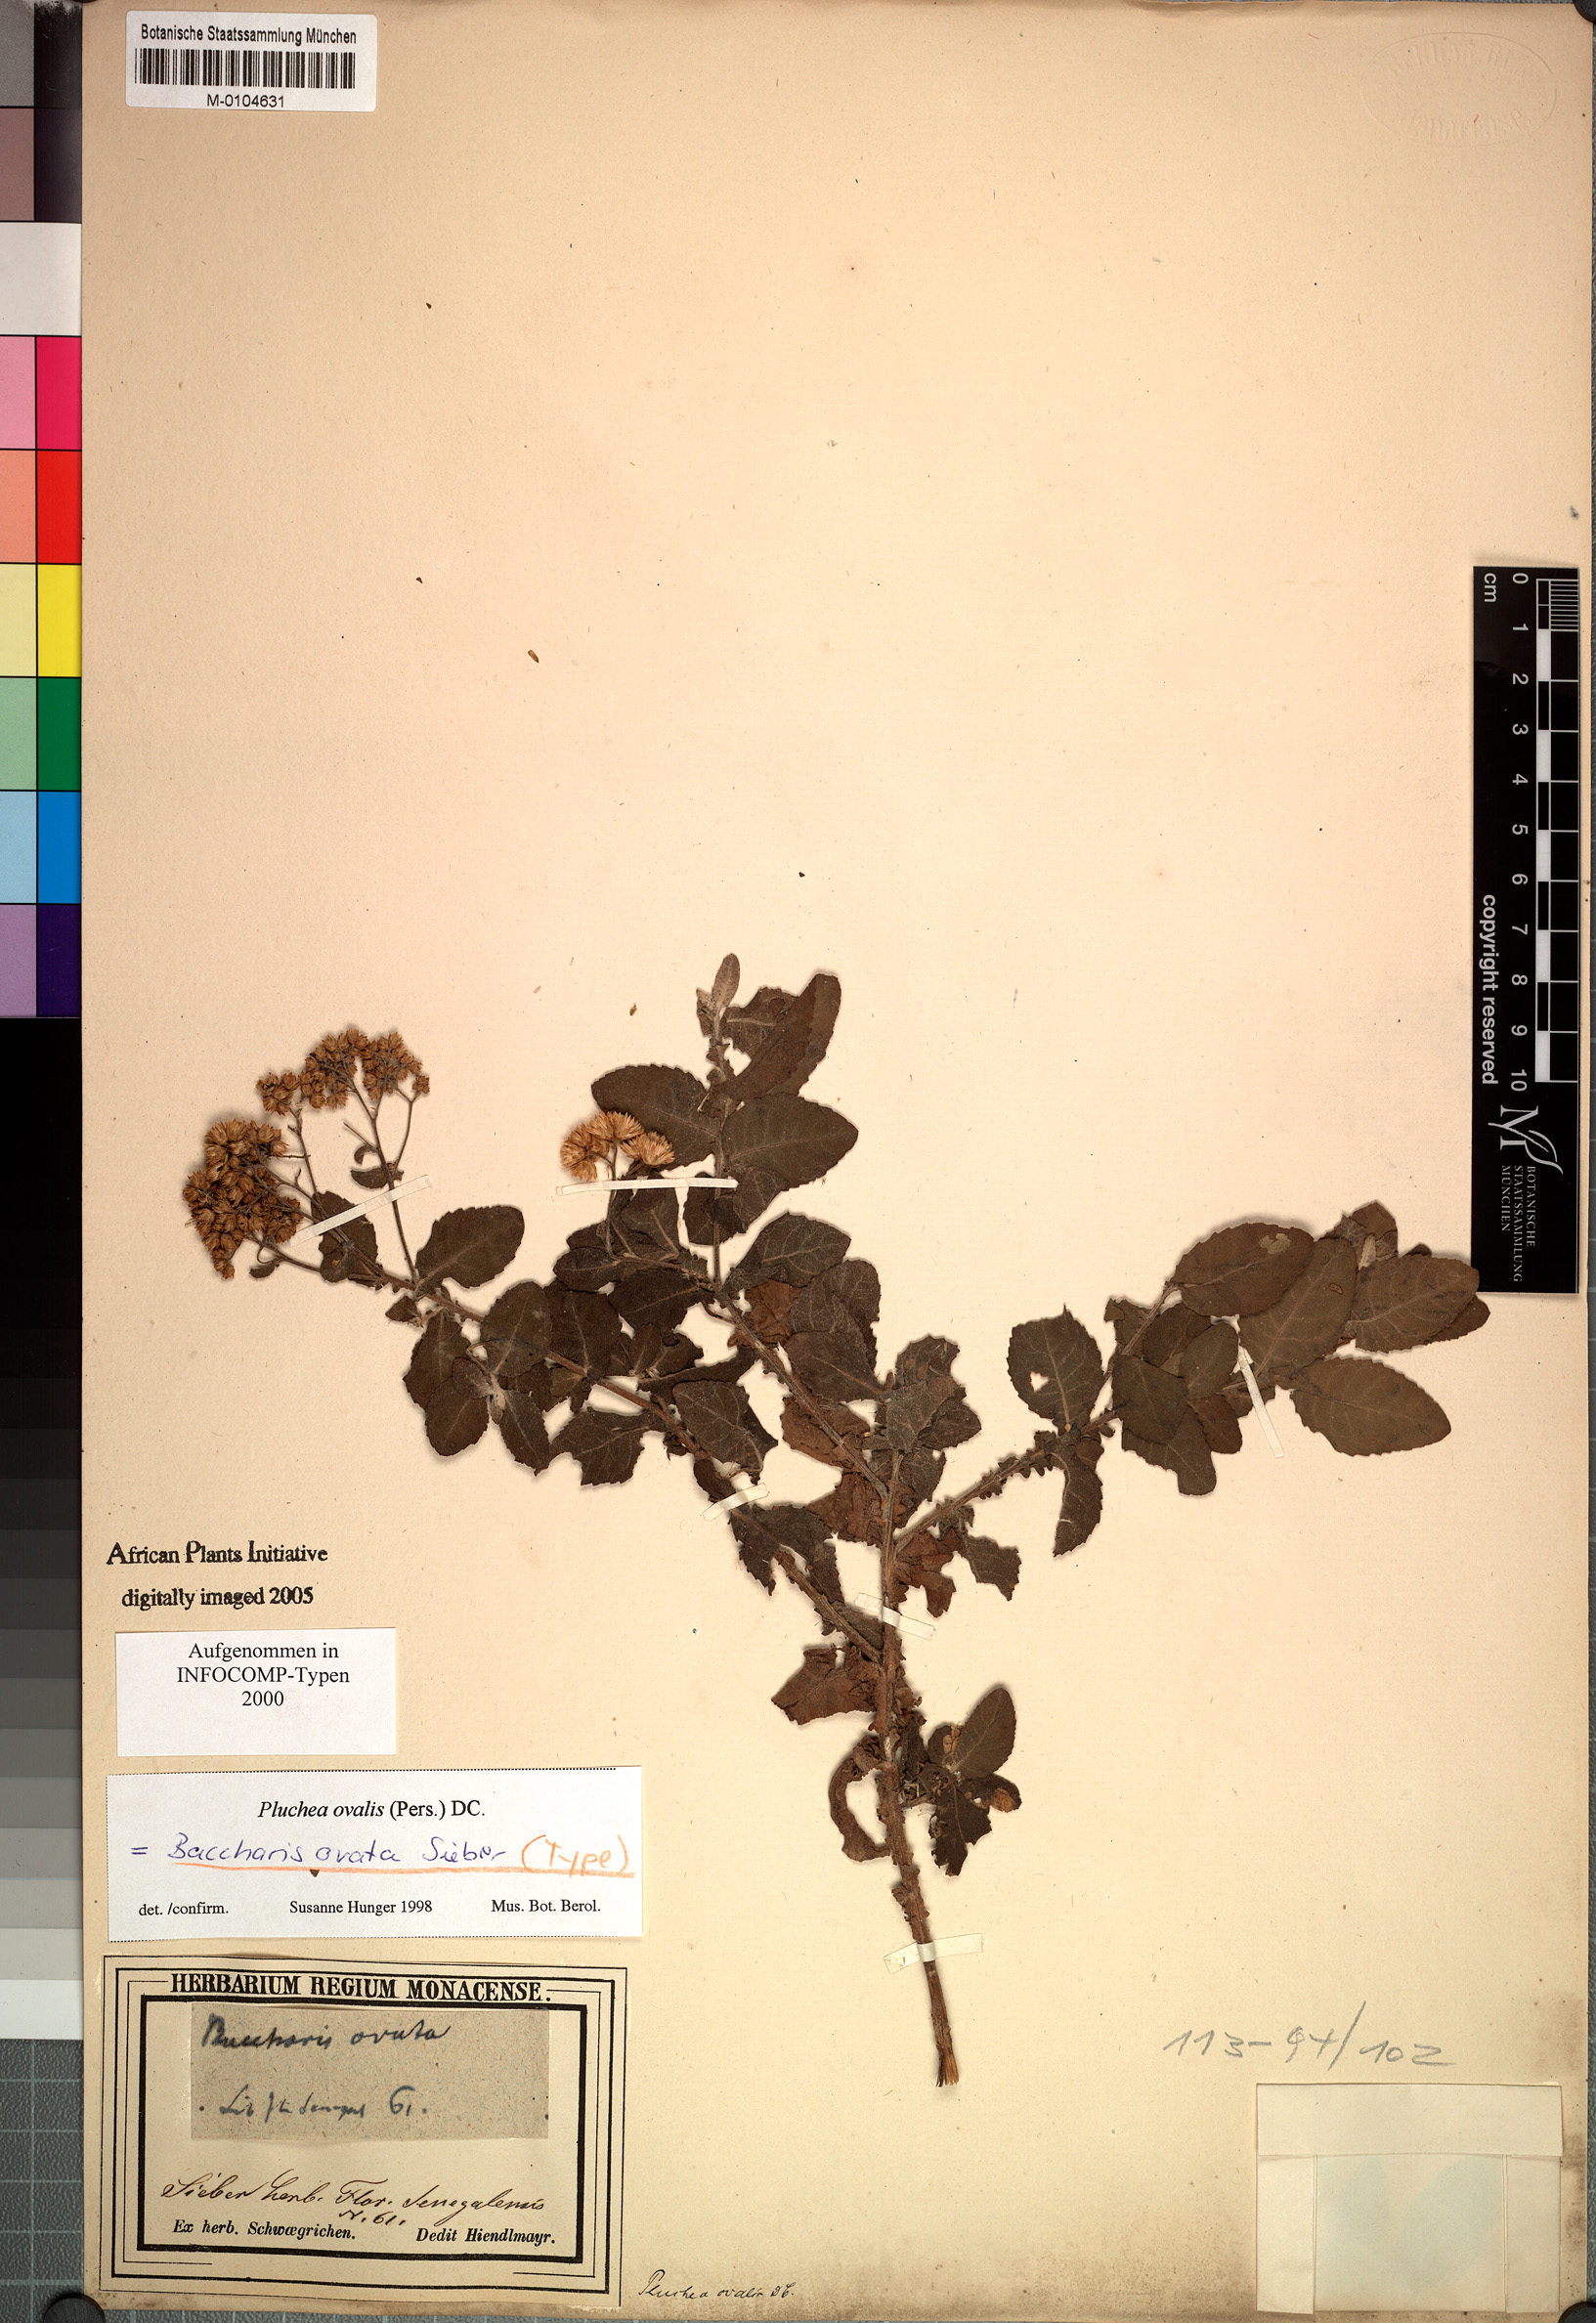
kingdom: Plantae
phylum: Tracheophyta
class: Magnoliopsida
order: Asterales
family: Asteraceae
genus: Pluchea
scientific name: Pluchea ovalis
